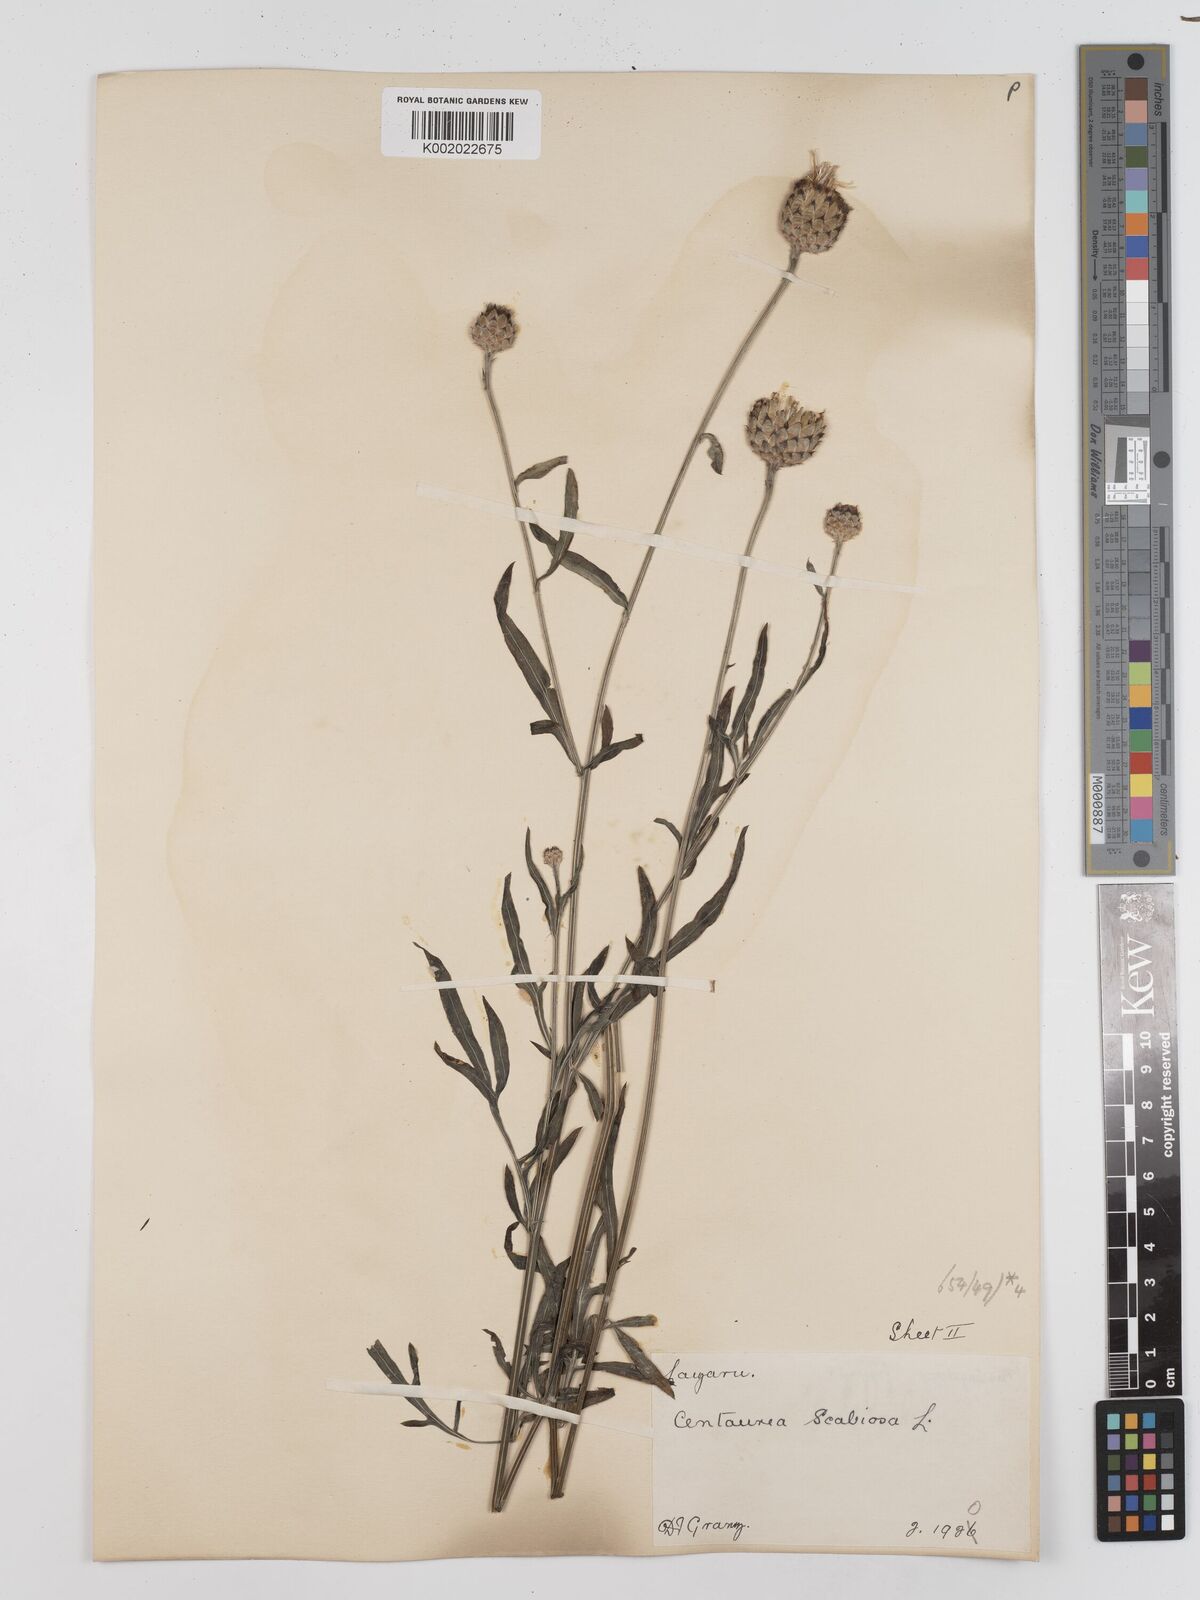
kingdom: Plantae
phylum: Tracheophyta
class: Magnoliopsida
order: Asterales
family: Asteraceae
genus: Centaurea
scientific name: Centaurea apiculata
